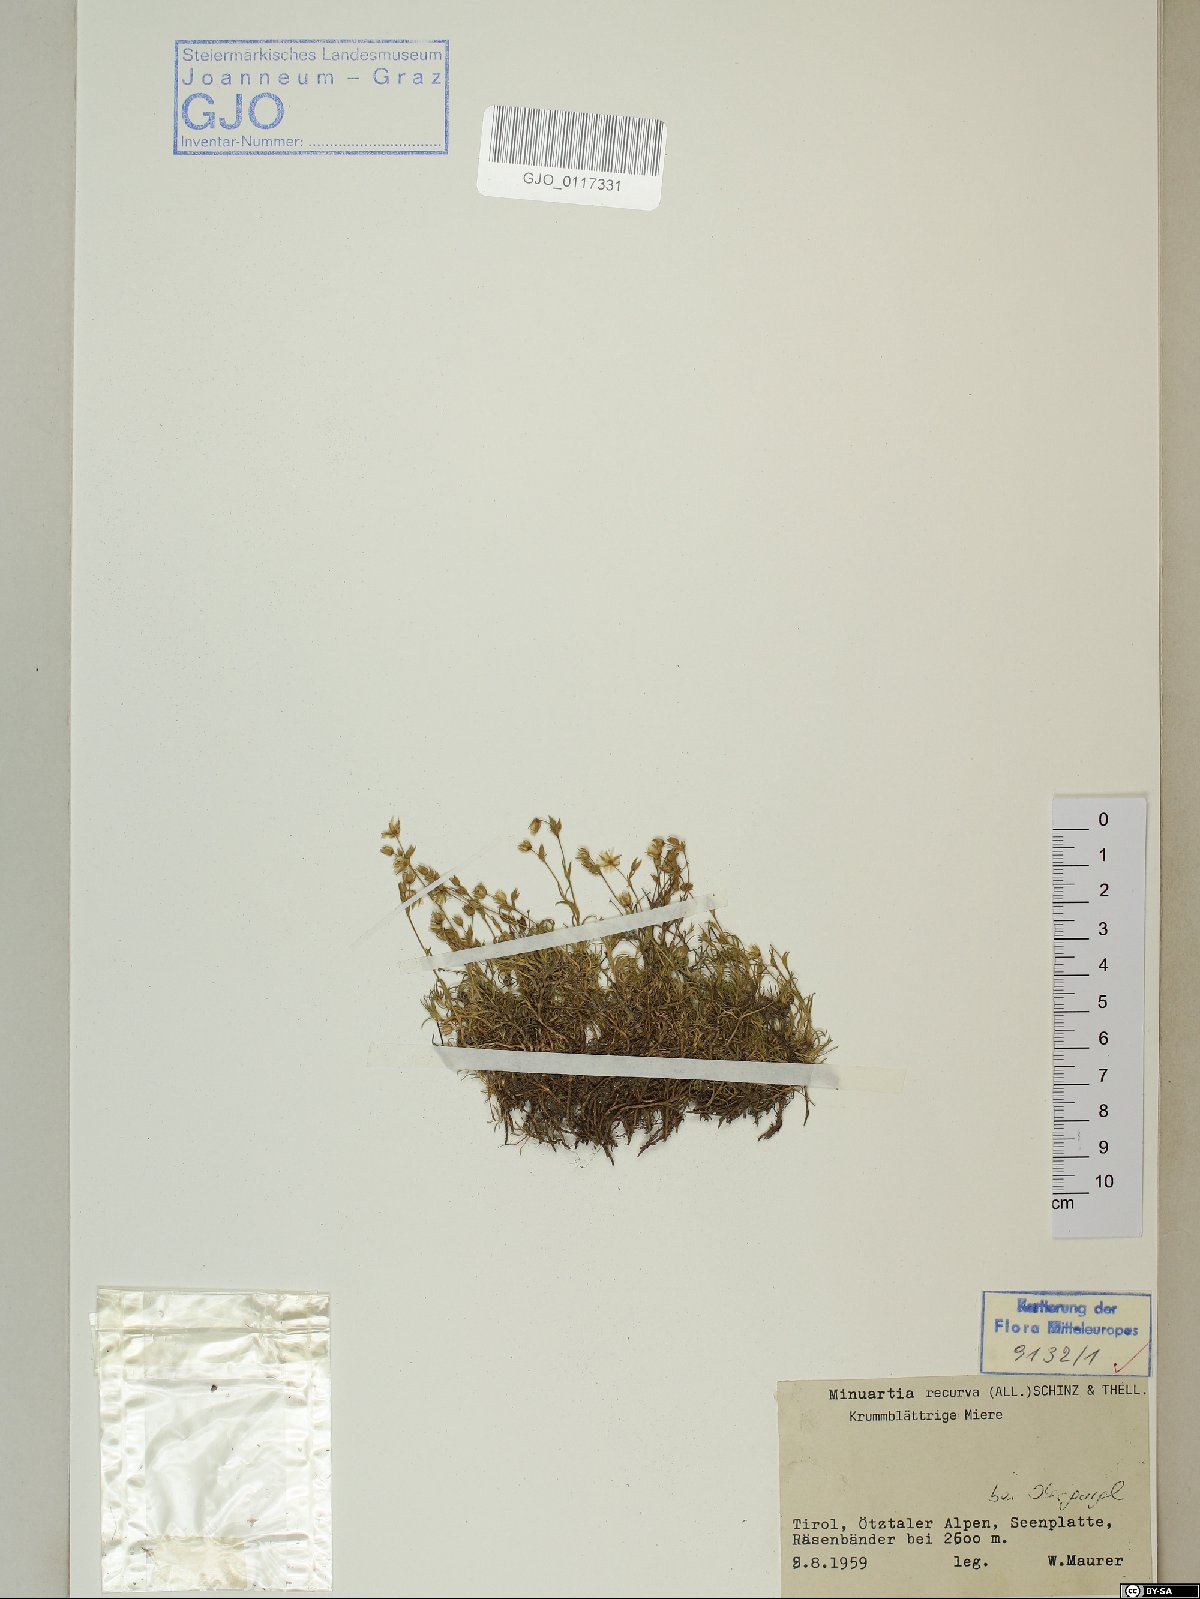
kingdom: Plantae
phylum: Tracheophyta
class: Magnoliopsida
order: Caryophyllales
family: Caryophyllaceae
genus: Minuartia
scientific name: Minuartia recurva
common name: Recurved sandwort
